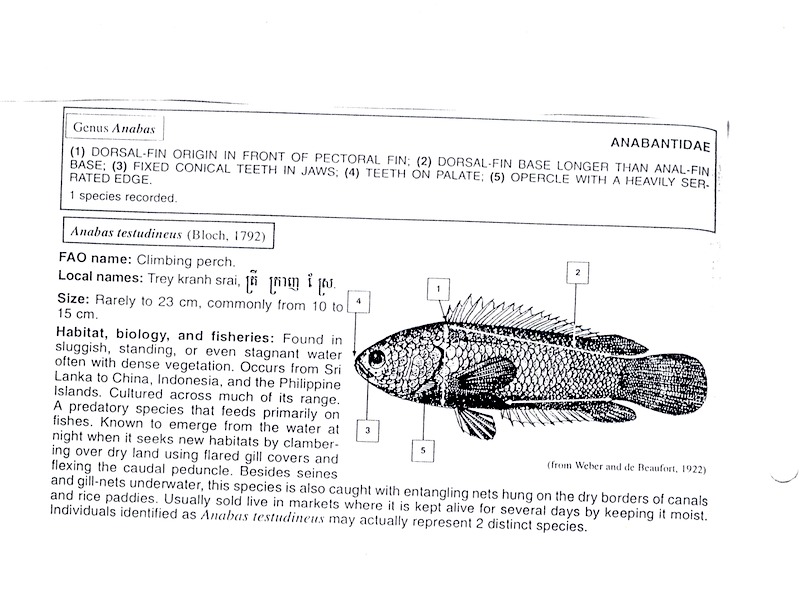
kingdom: Animalia
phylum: Chordata
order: Perciformes
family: Anabantidae
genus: Anabas
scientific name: Anabas testudineus
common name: Climbing perch
